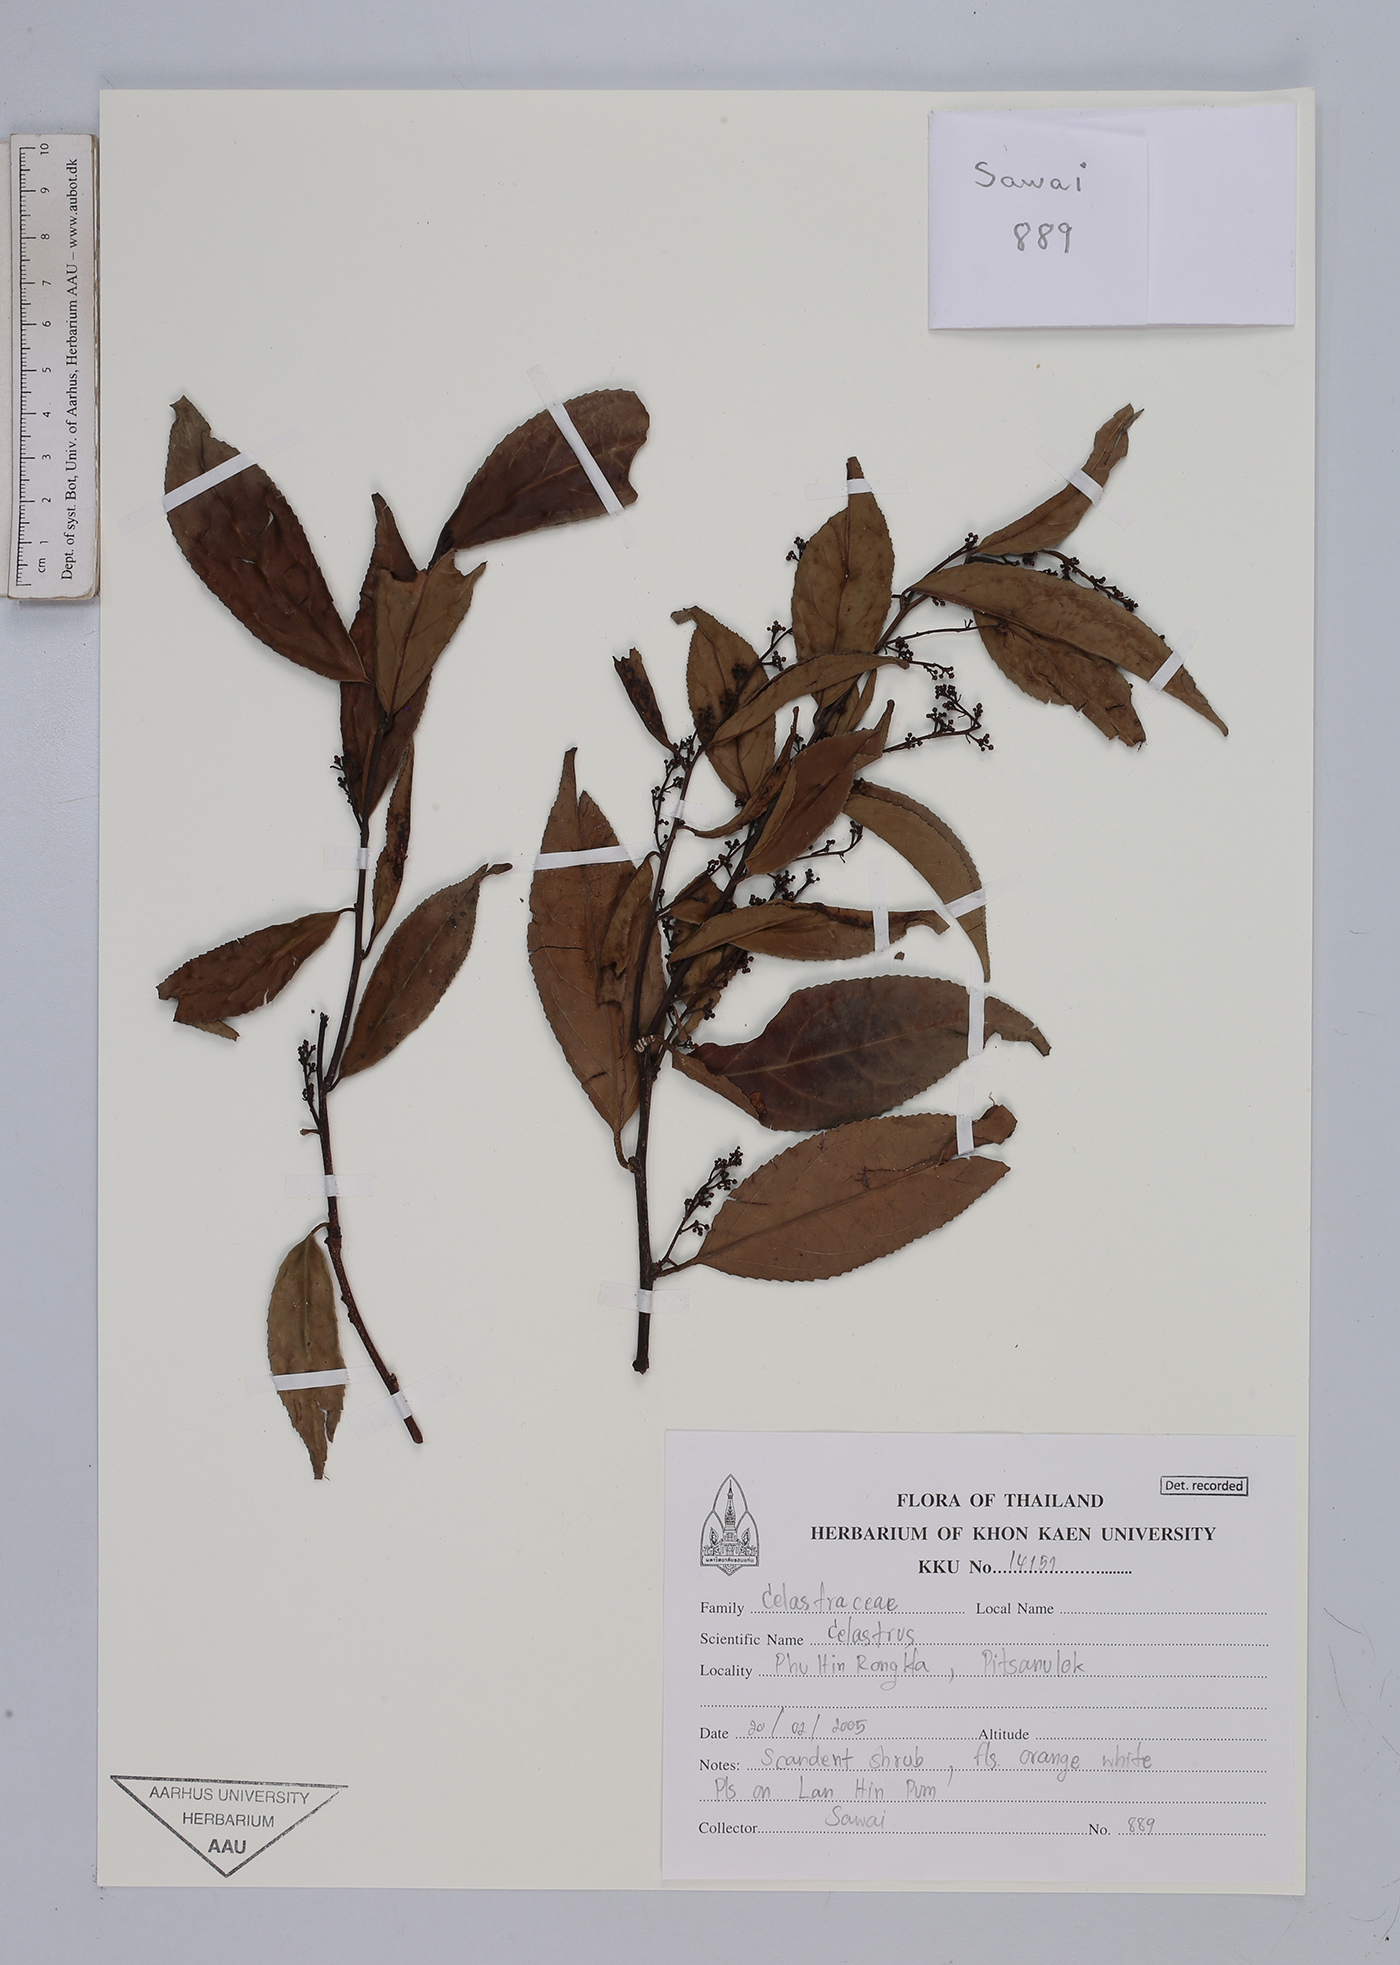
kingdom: Plantae
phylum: Tracheophyta
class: Magnoliopsida
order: Celastrales
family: Celastraceae
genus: Celastrus
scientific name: Celastrus
